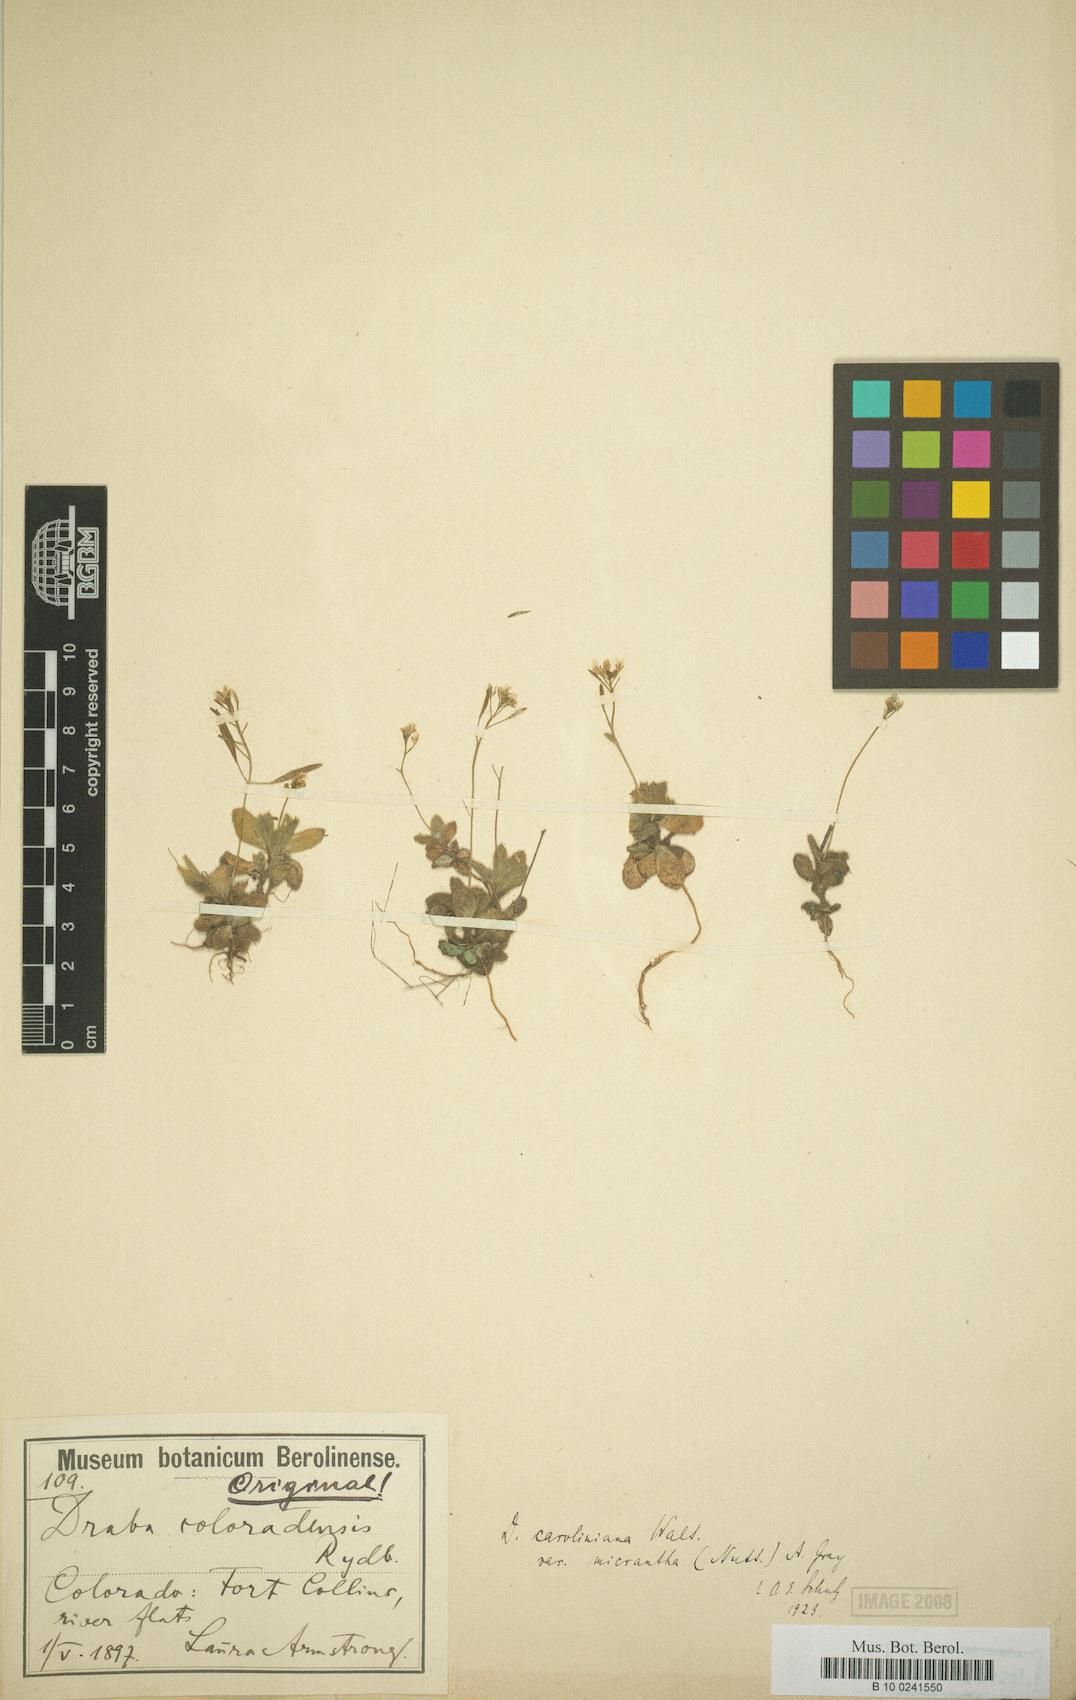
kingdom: Plantae
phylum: Tracheophyta
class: Magnoliopsida
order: Brassicales
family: Brassicaceae
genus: Tomostima
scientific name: Tomostima reptans
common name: Carolina draba
